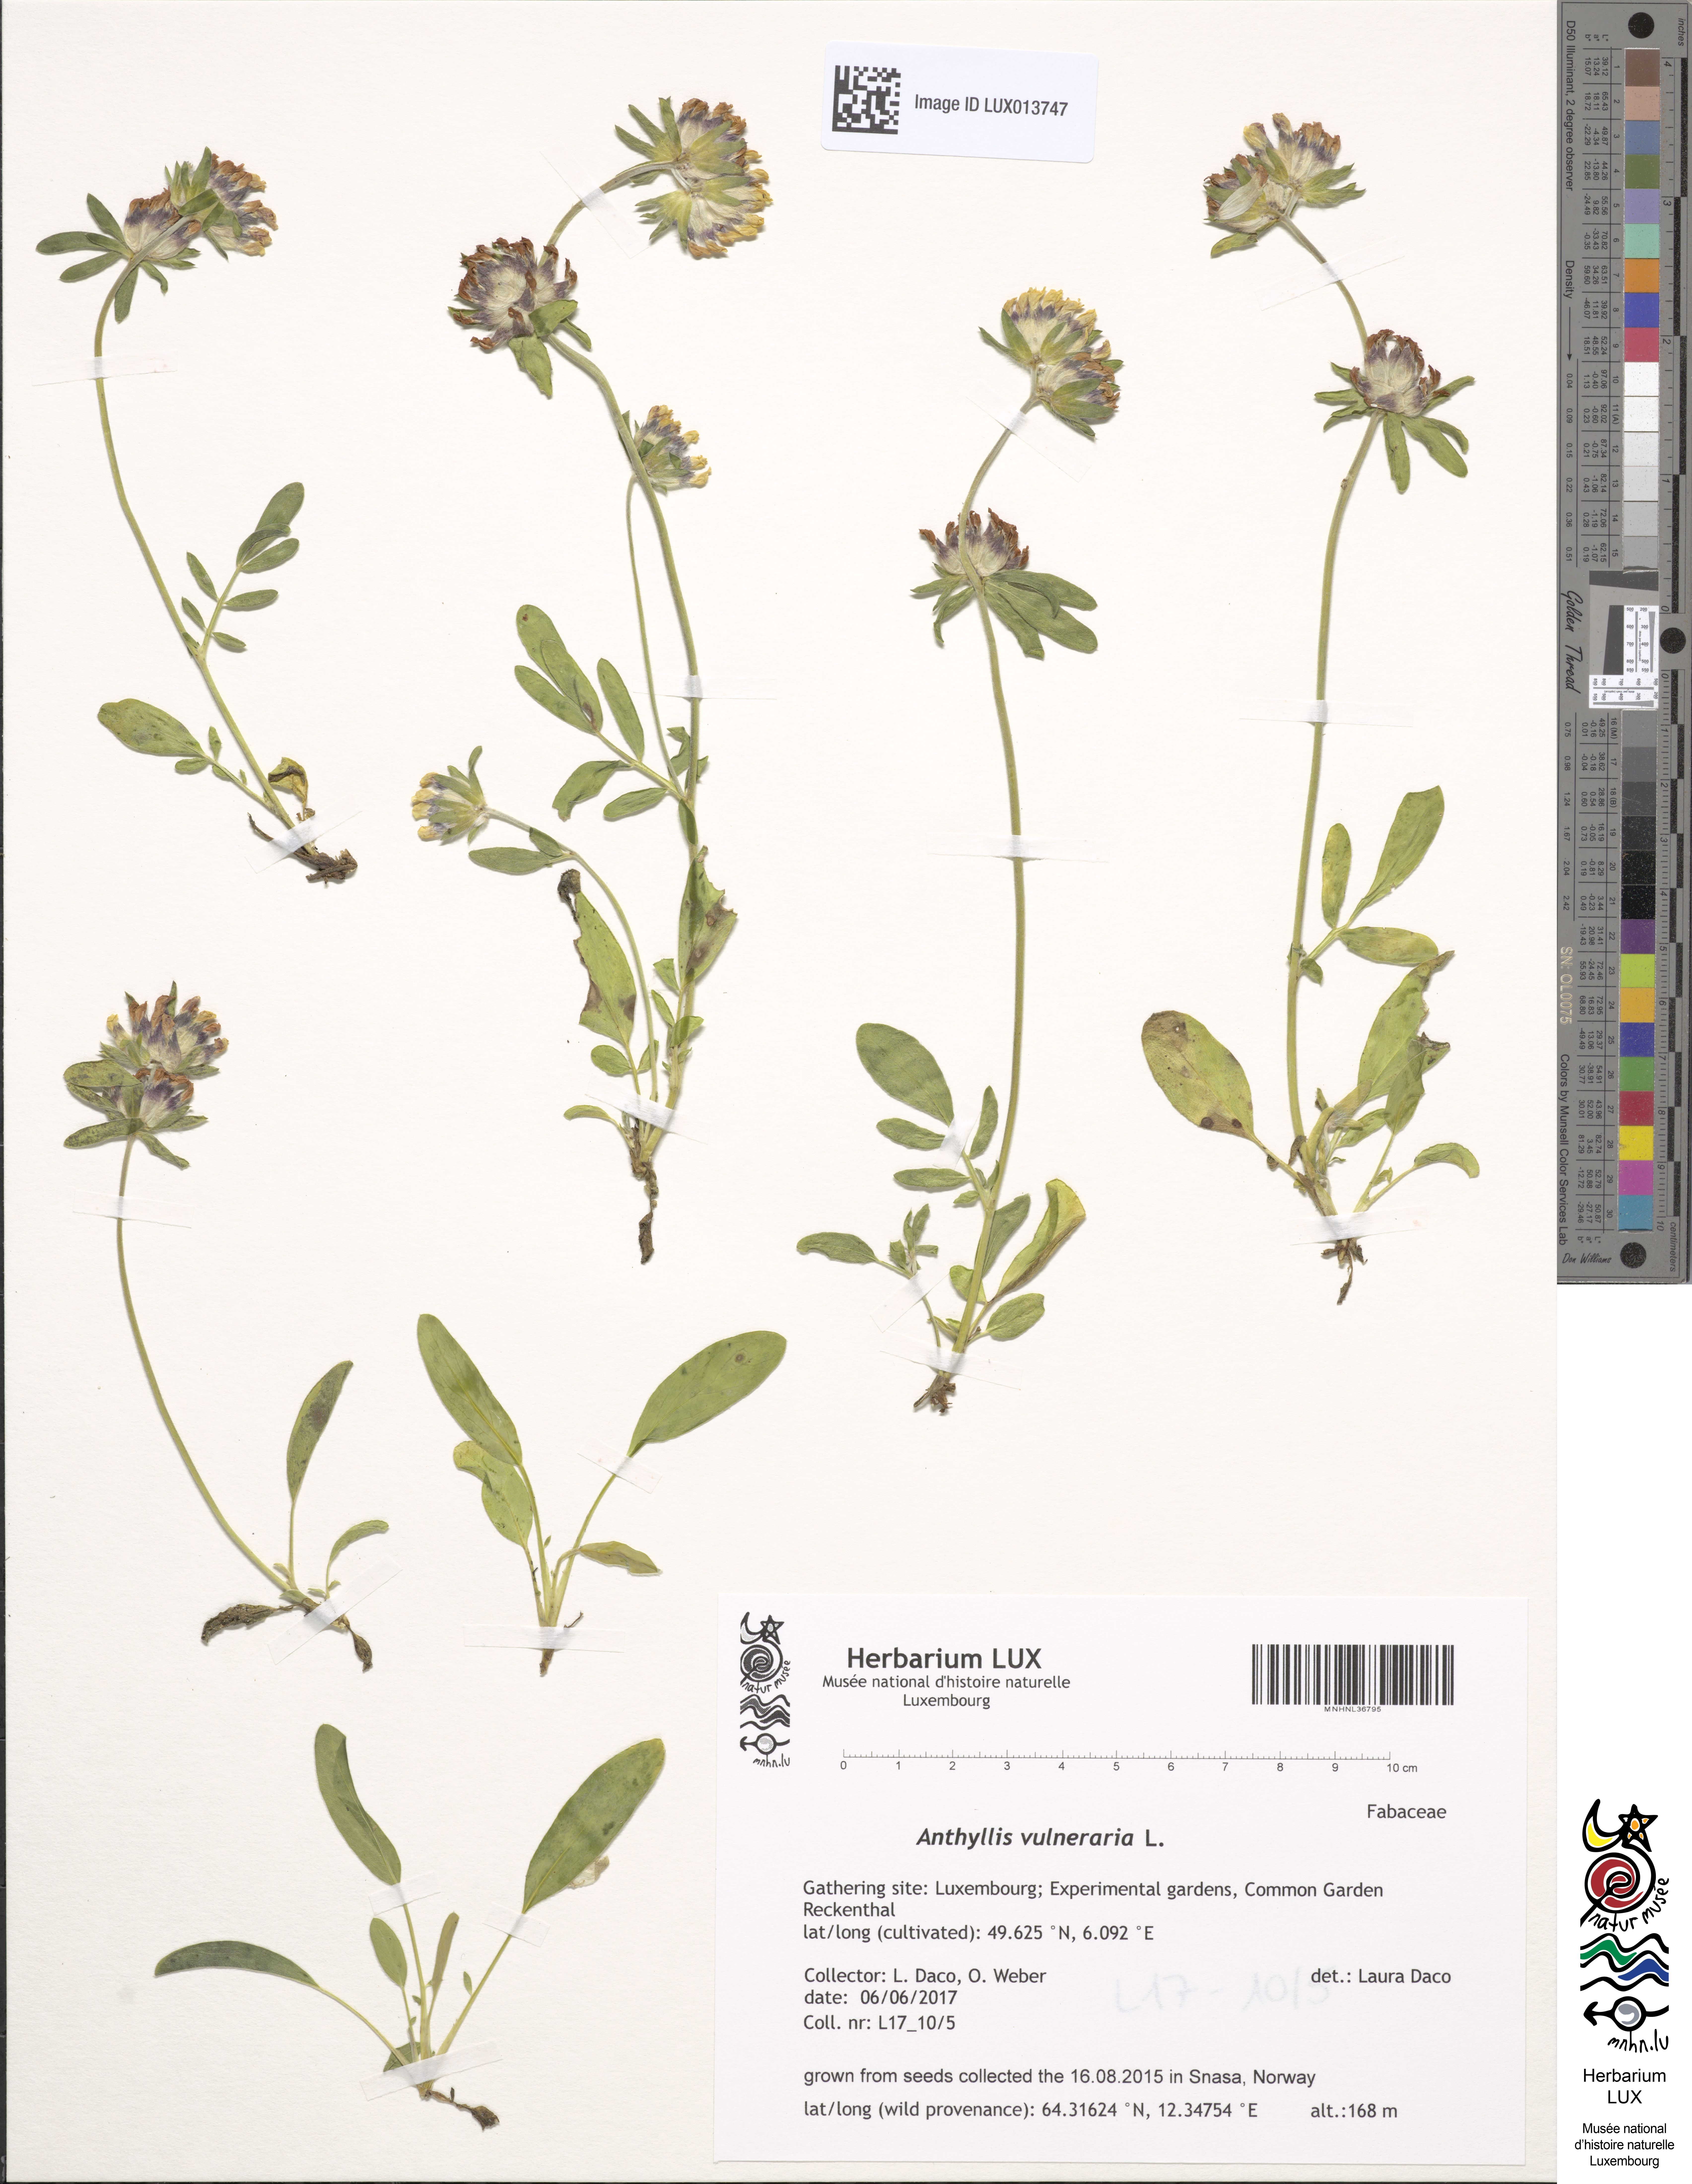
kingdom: Plantae
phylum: Tracheophyta
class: Magnoliopsida
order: Fabales
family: Fabaceae
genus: Anthyllis
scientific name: Anthyllis vulneraria
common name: Kidney vetch
